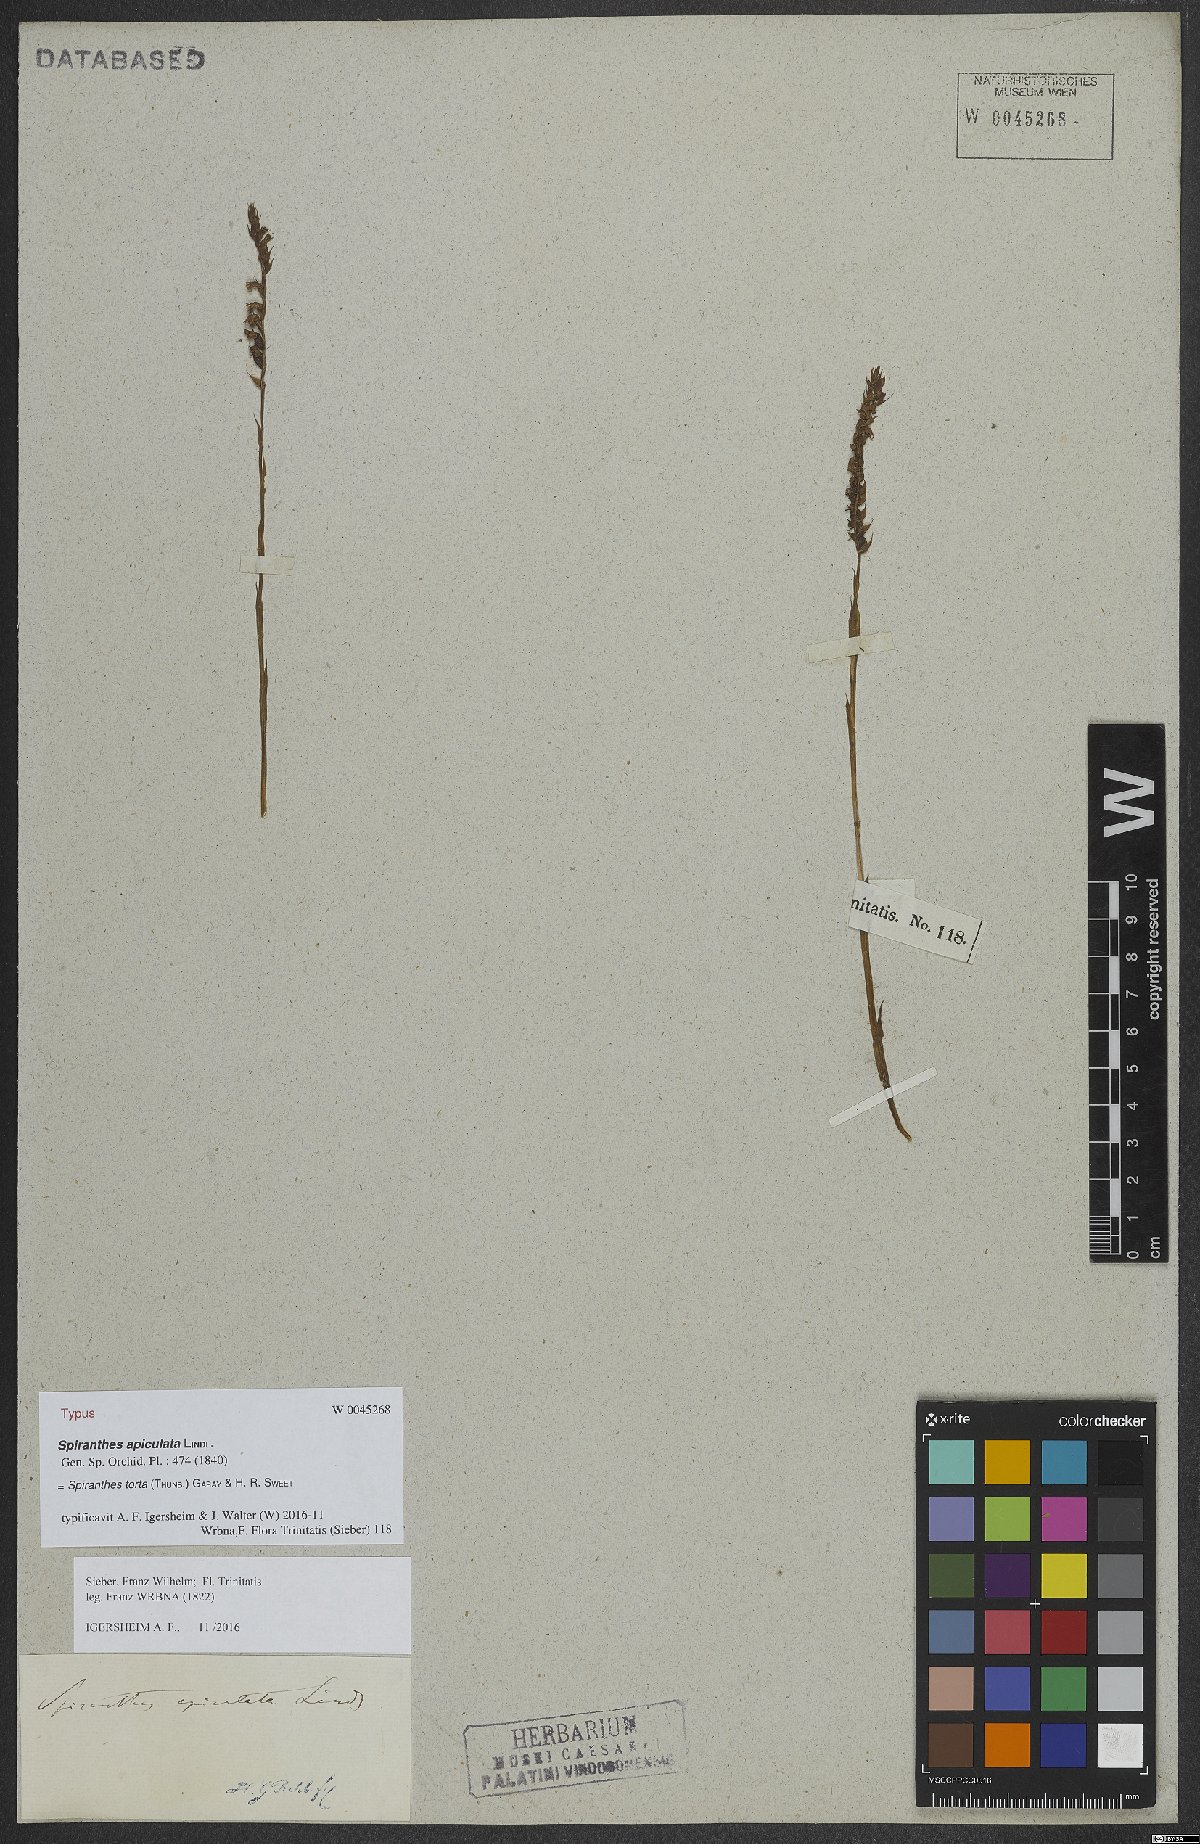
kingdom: Plantae
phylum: Tracheophyta
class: Liliopsida
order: Asparagales
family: Orchidaceae
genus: Spiranthes
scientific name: Spiranthes torta
